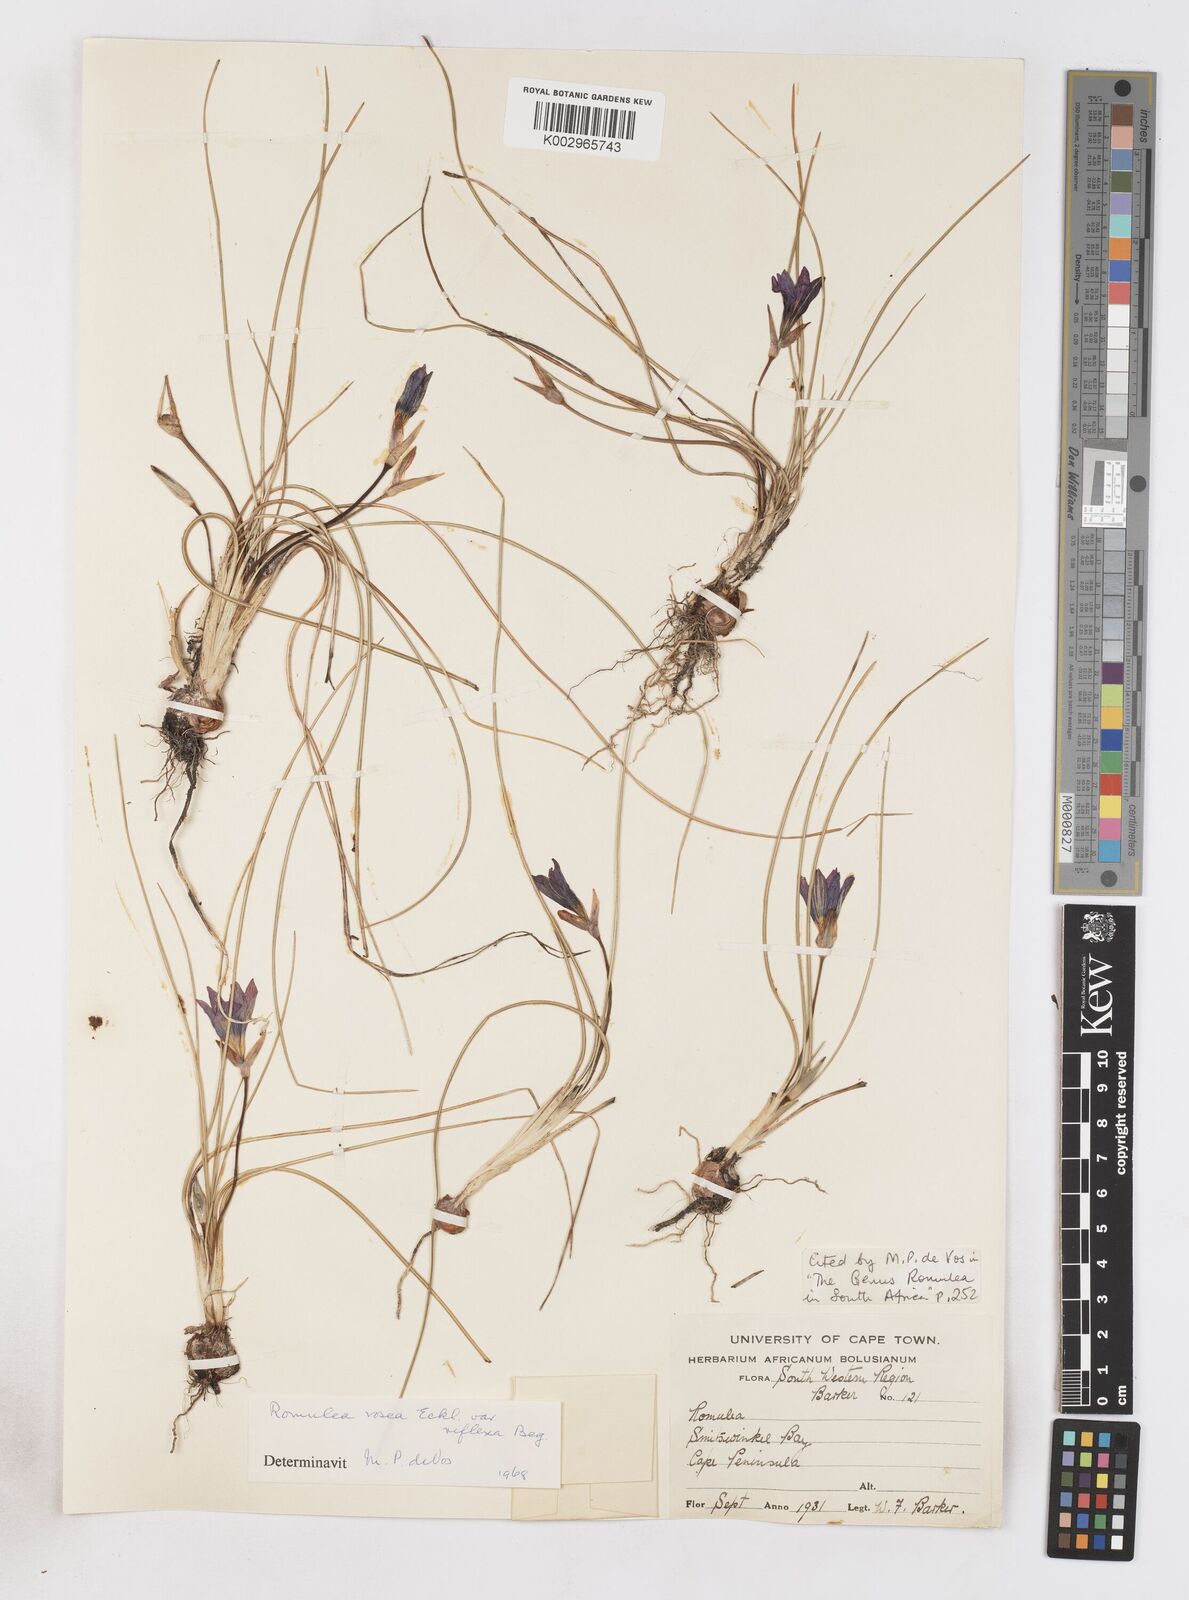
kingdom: Plantae
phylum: Tracheophyta
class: Liliopsida
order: Asparagales
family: Iridaceae
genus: Romulea
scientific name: Romulea rosea
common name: Oniongrass
